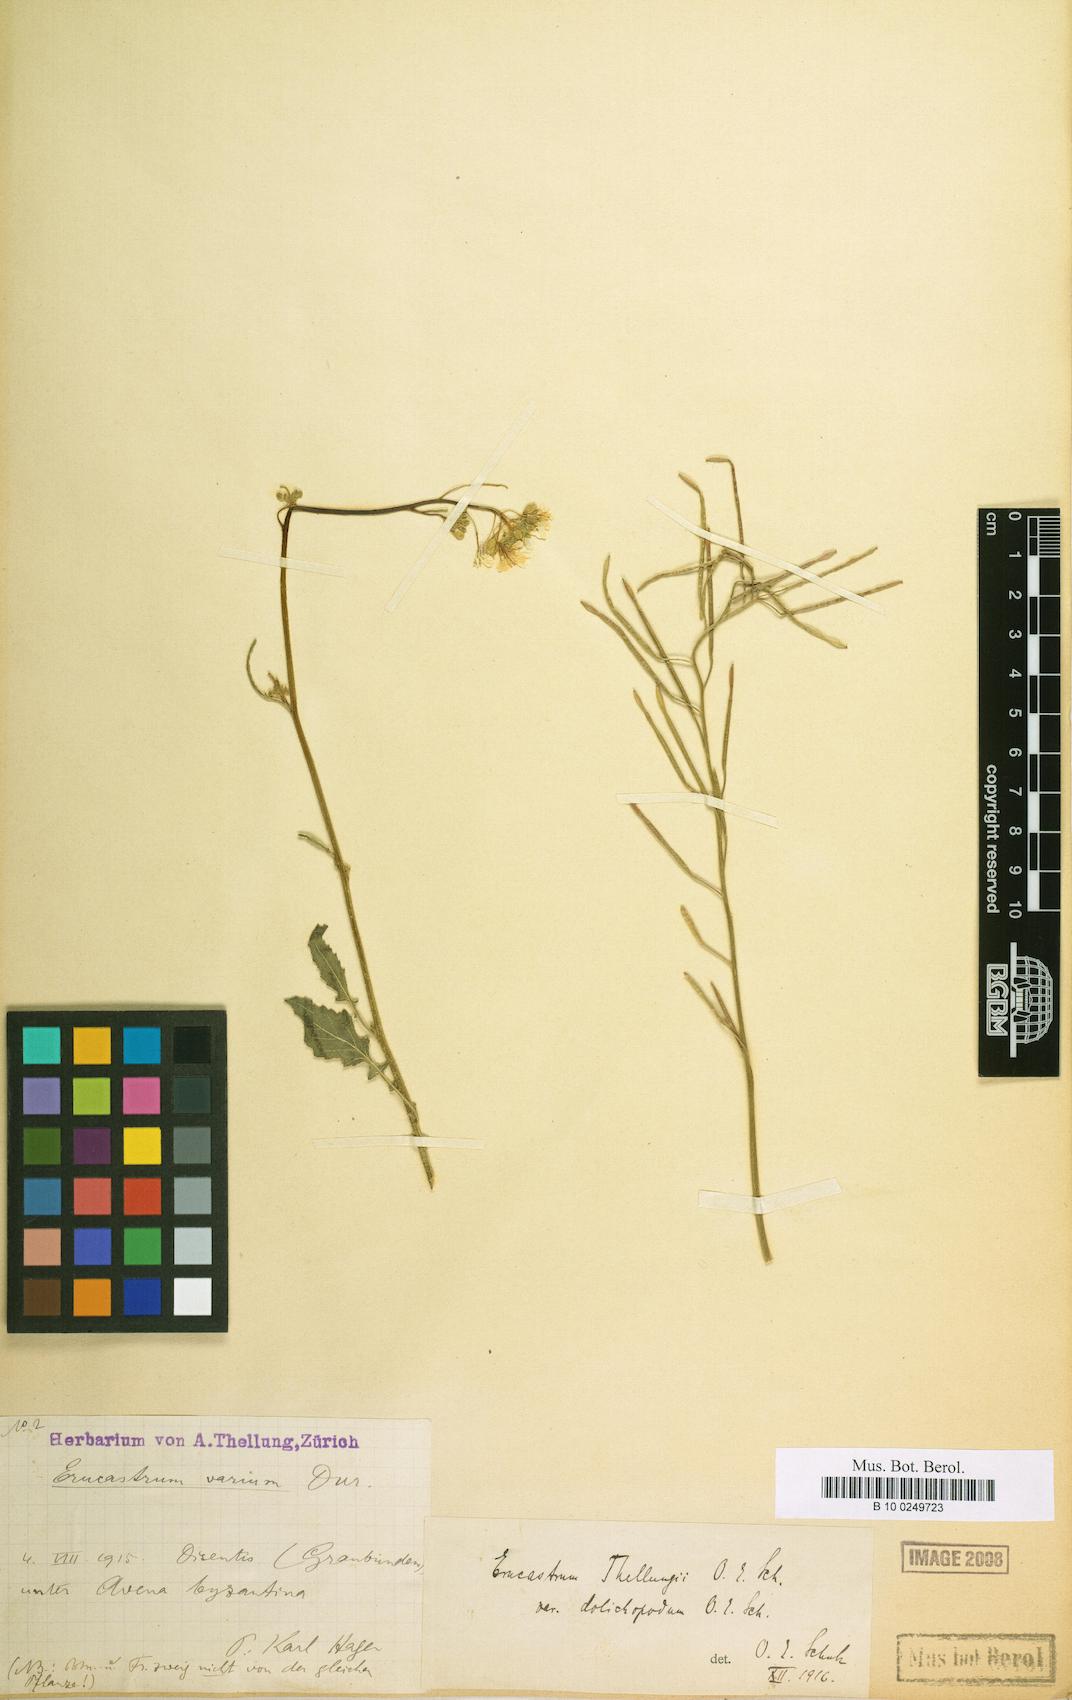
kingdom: Plantae
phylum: Tracheophyta
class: Magnoliopsida
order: Brassicales
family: Brassicaceae
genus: Hirschfeldia
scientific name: Hirschfeldia incana
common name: Hoary mustard
